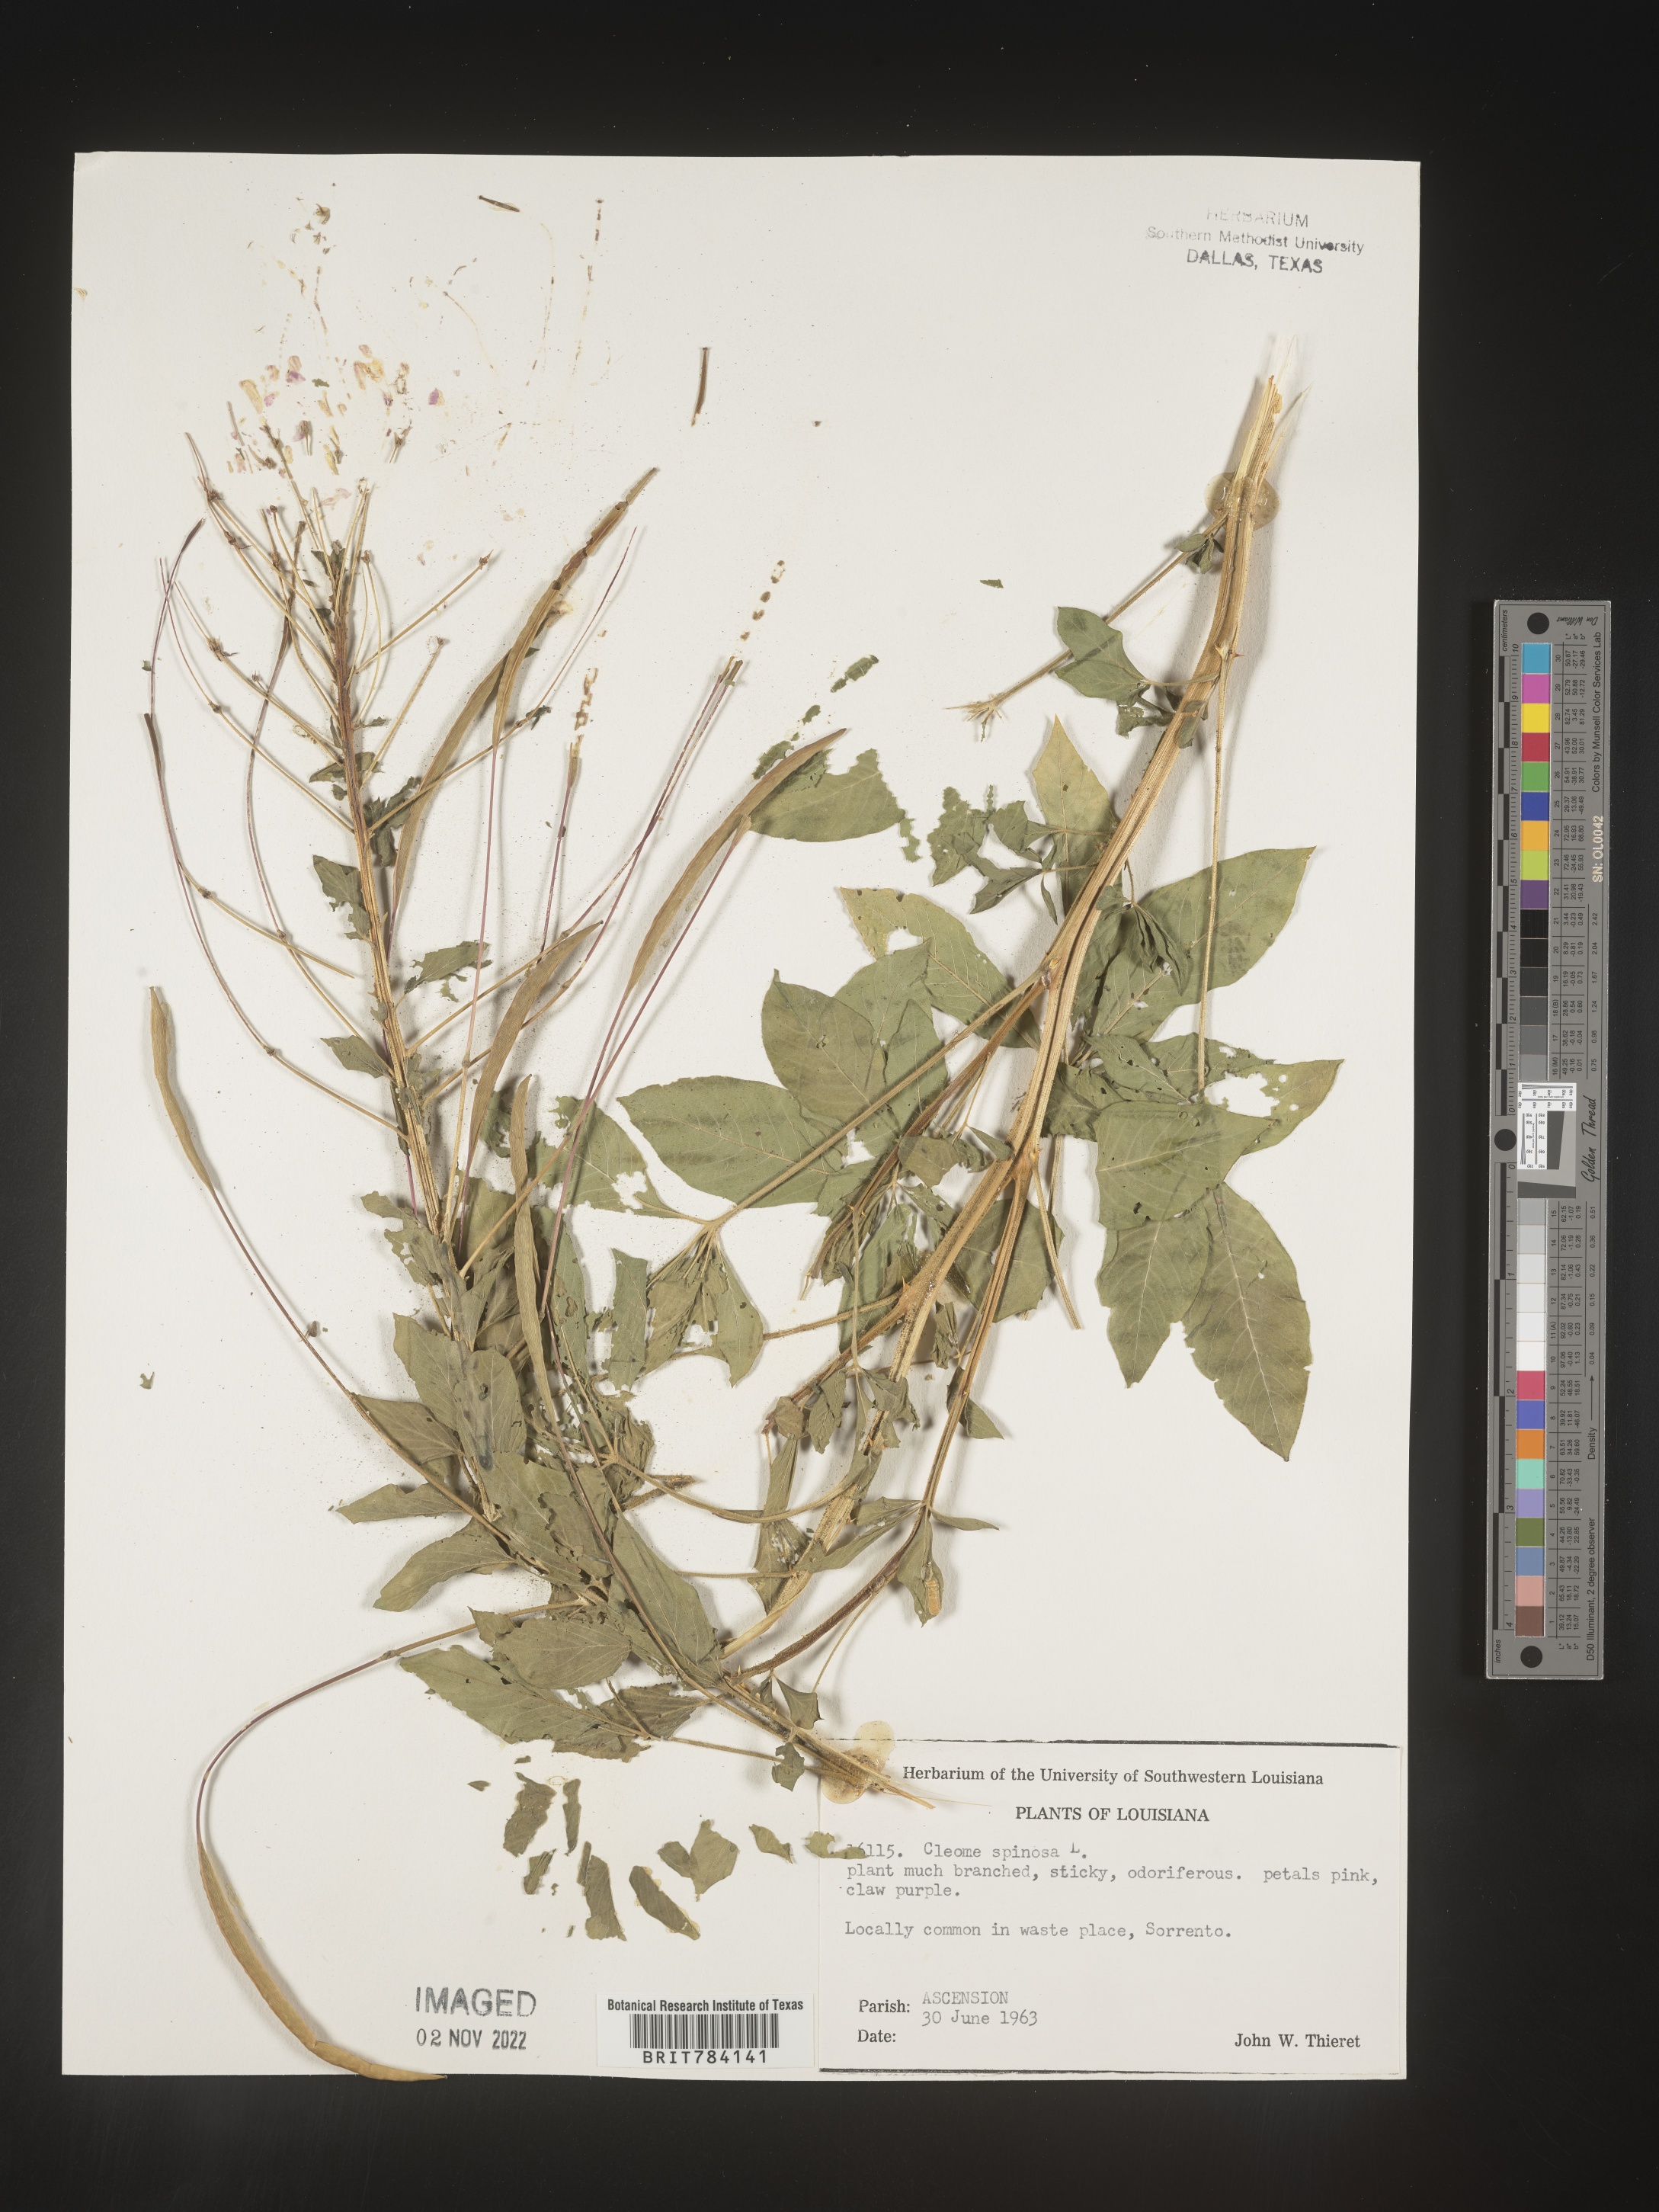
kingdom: Plantae
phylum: Tracheophyta
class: Magnoliopsida
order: Brassicales
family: Cleomaceae
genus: Cleome
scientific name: Cleome
